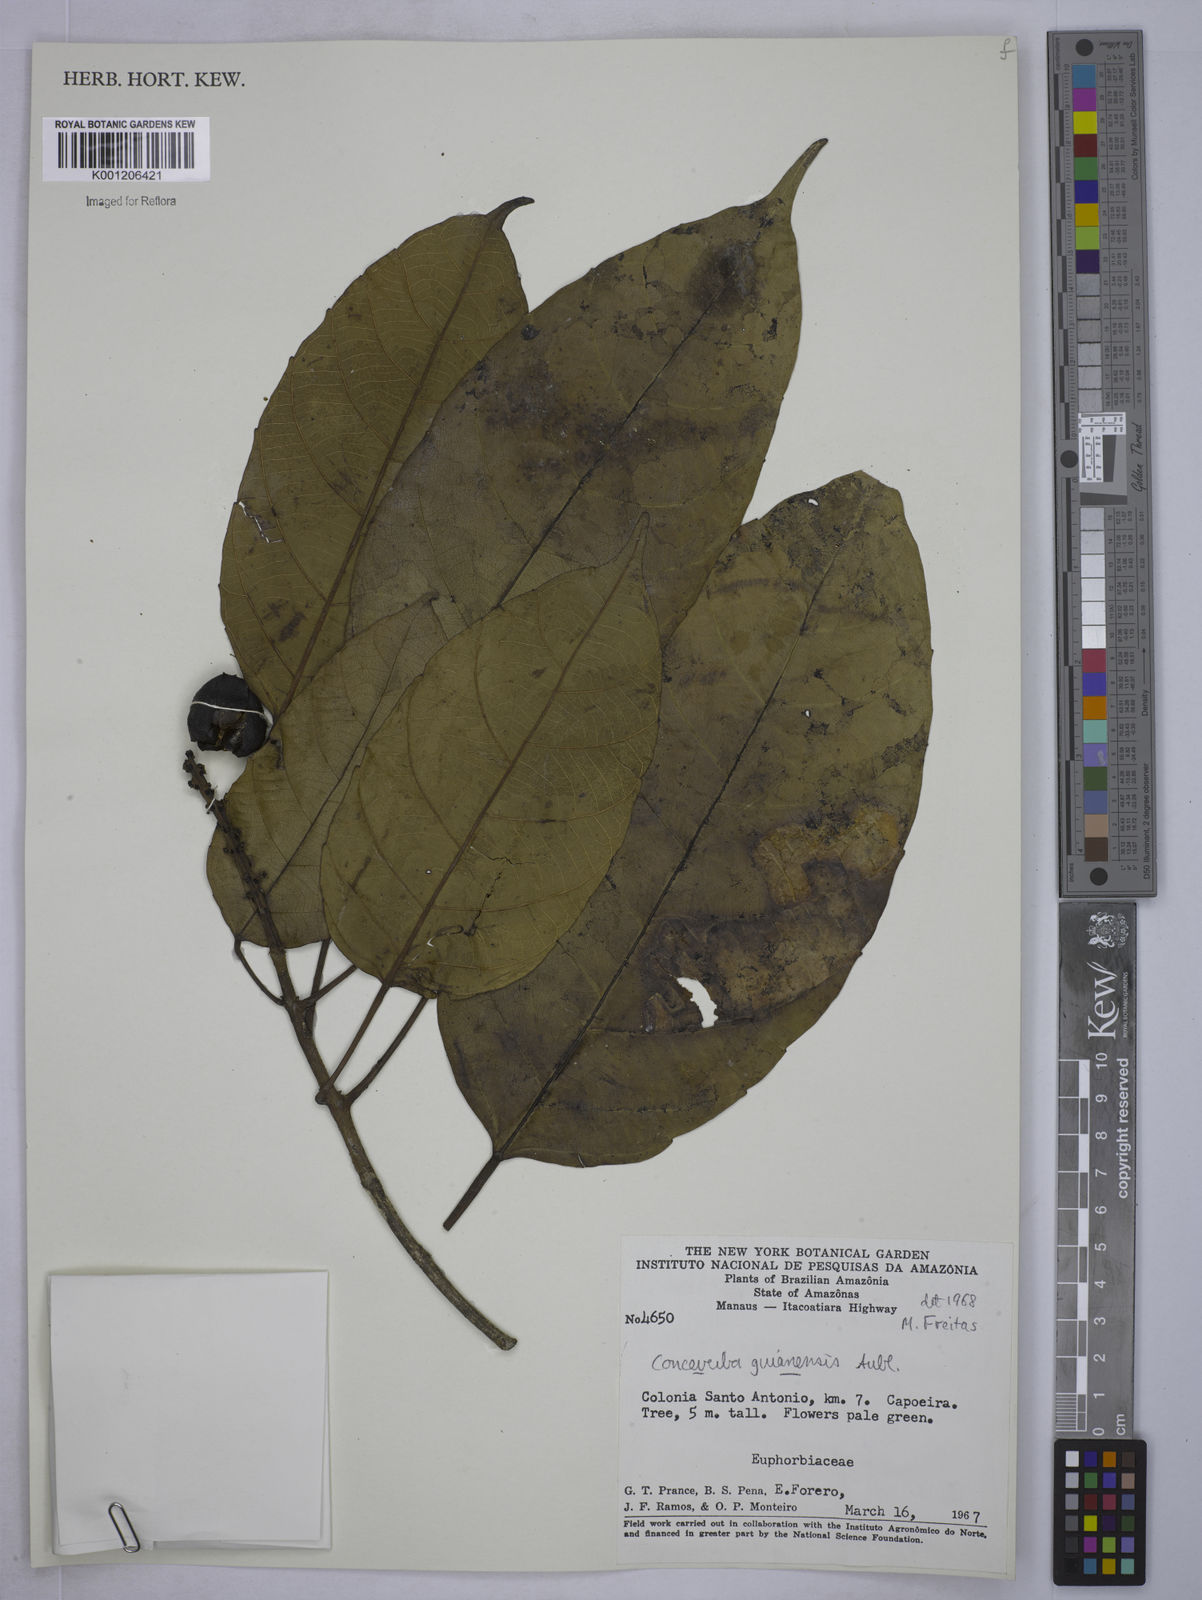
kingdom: Plantae
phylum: Tracheophyta
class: Magnoliopsida
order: Malpighiales
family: Euphorbiaceae
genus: Conceveiba
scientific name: Conceveiba guianensis
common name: Poatoru
